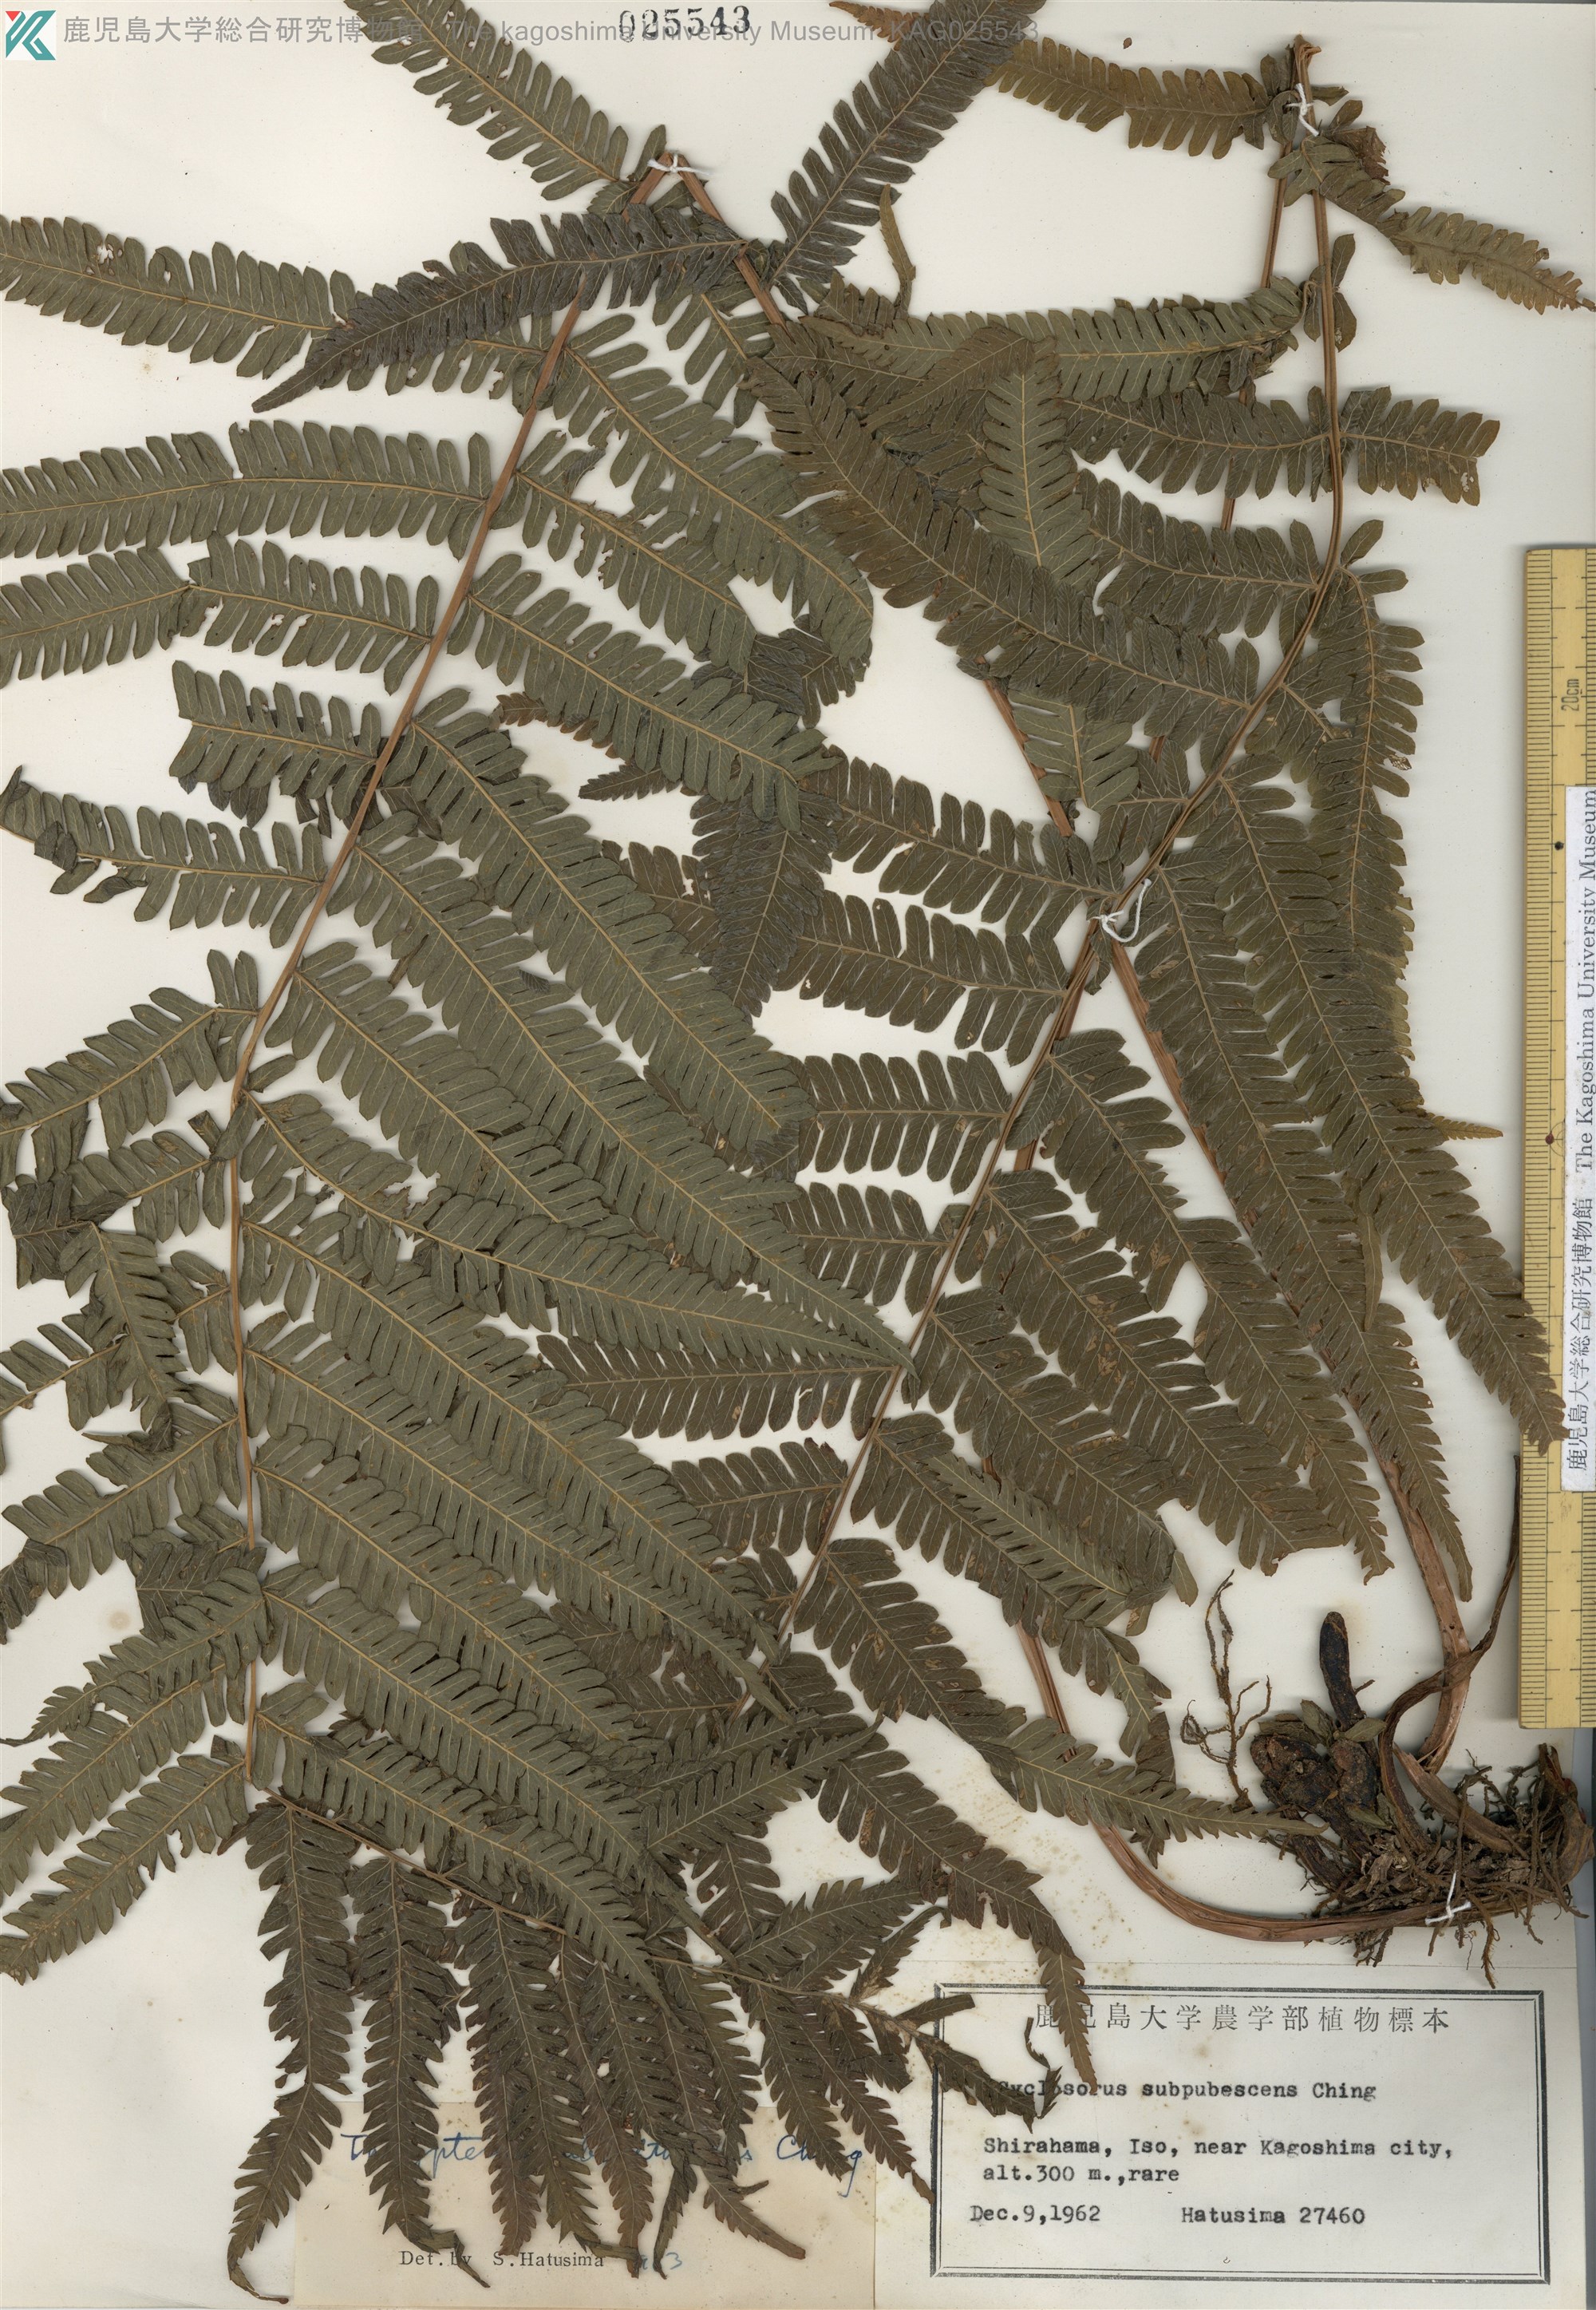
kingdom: Plantae
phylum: Tracheophyta
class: Polypodiopsida
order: Polypodiales
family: Thelypteridaceae
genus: Pseudocyclosorus
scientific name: Pseudocyclosorus esquirolii
